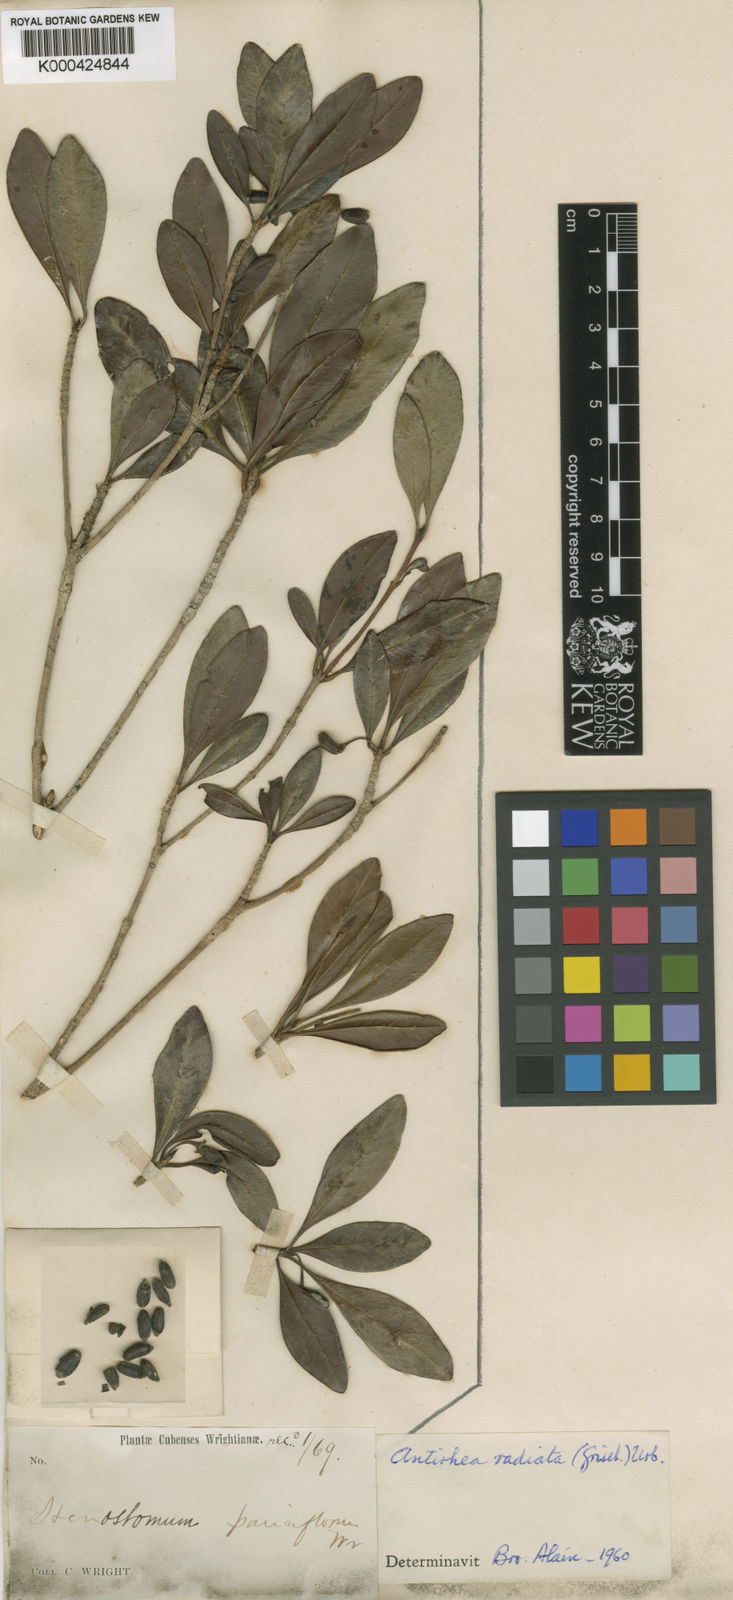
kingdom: Plantae
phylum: Tracheophyta
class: Magnoliopsida
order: Gentianales
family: Rubiaceae
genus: Stenostomum
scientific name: Stenostomum radiatum
